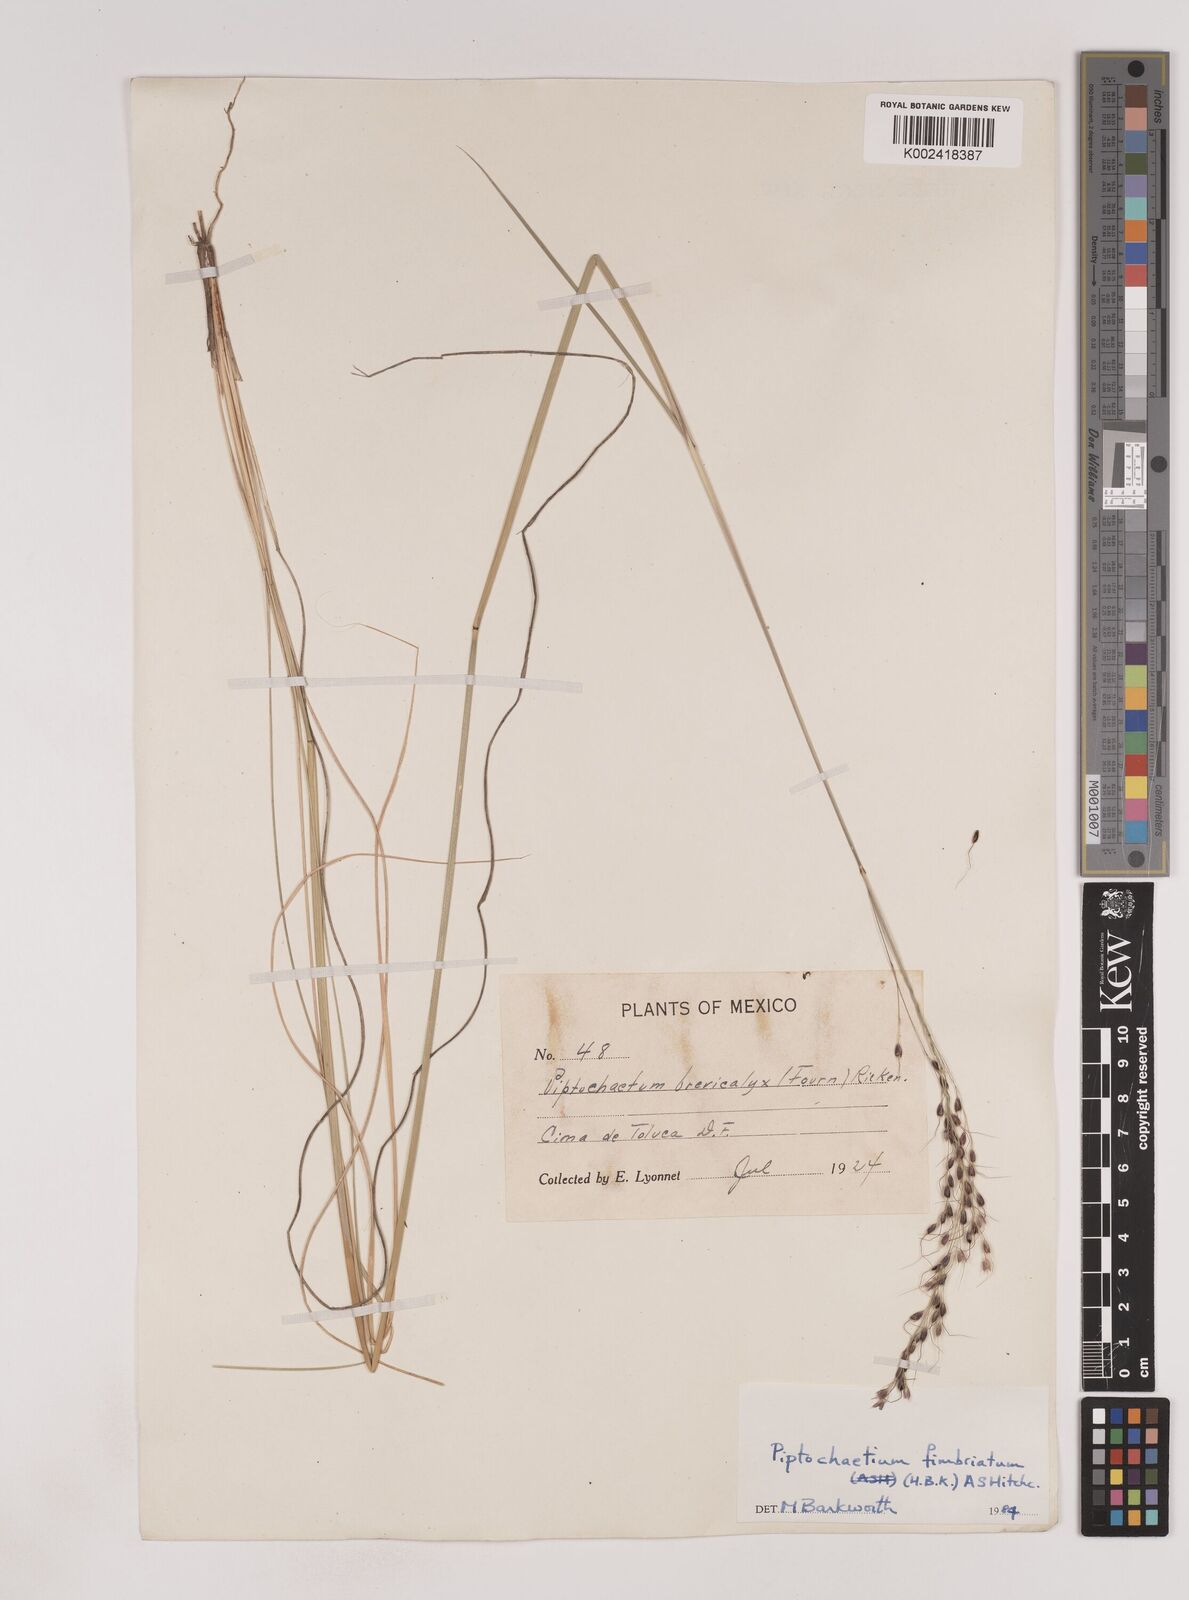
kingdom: Plantae
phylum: Tracheophyta
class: Liliopsida
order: Poales
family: Poaceae
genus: Piptochaetium
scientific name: Piptochaetium fimbriatum
